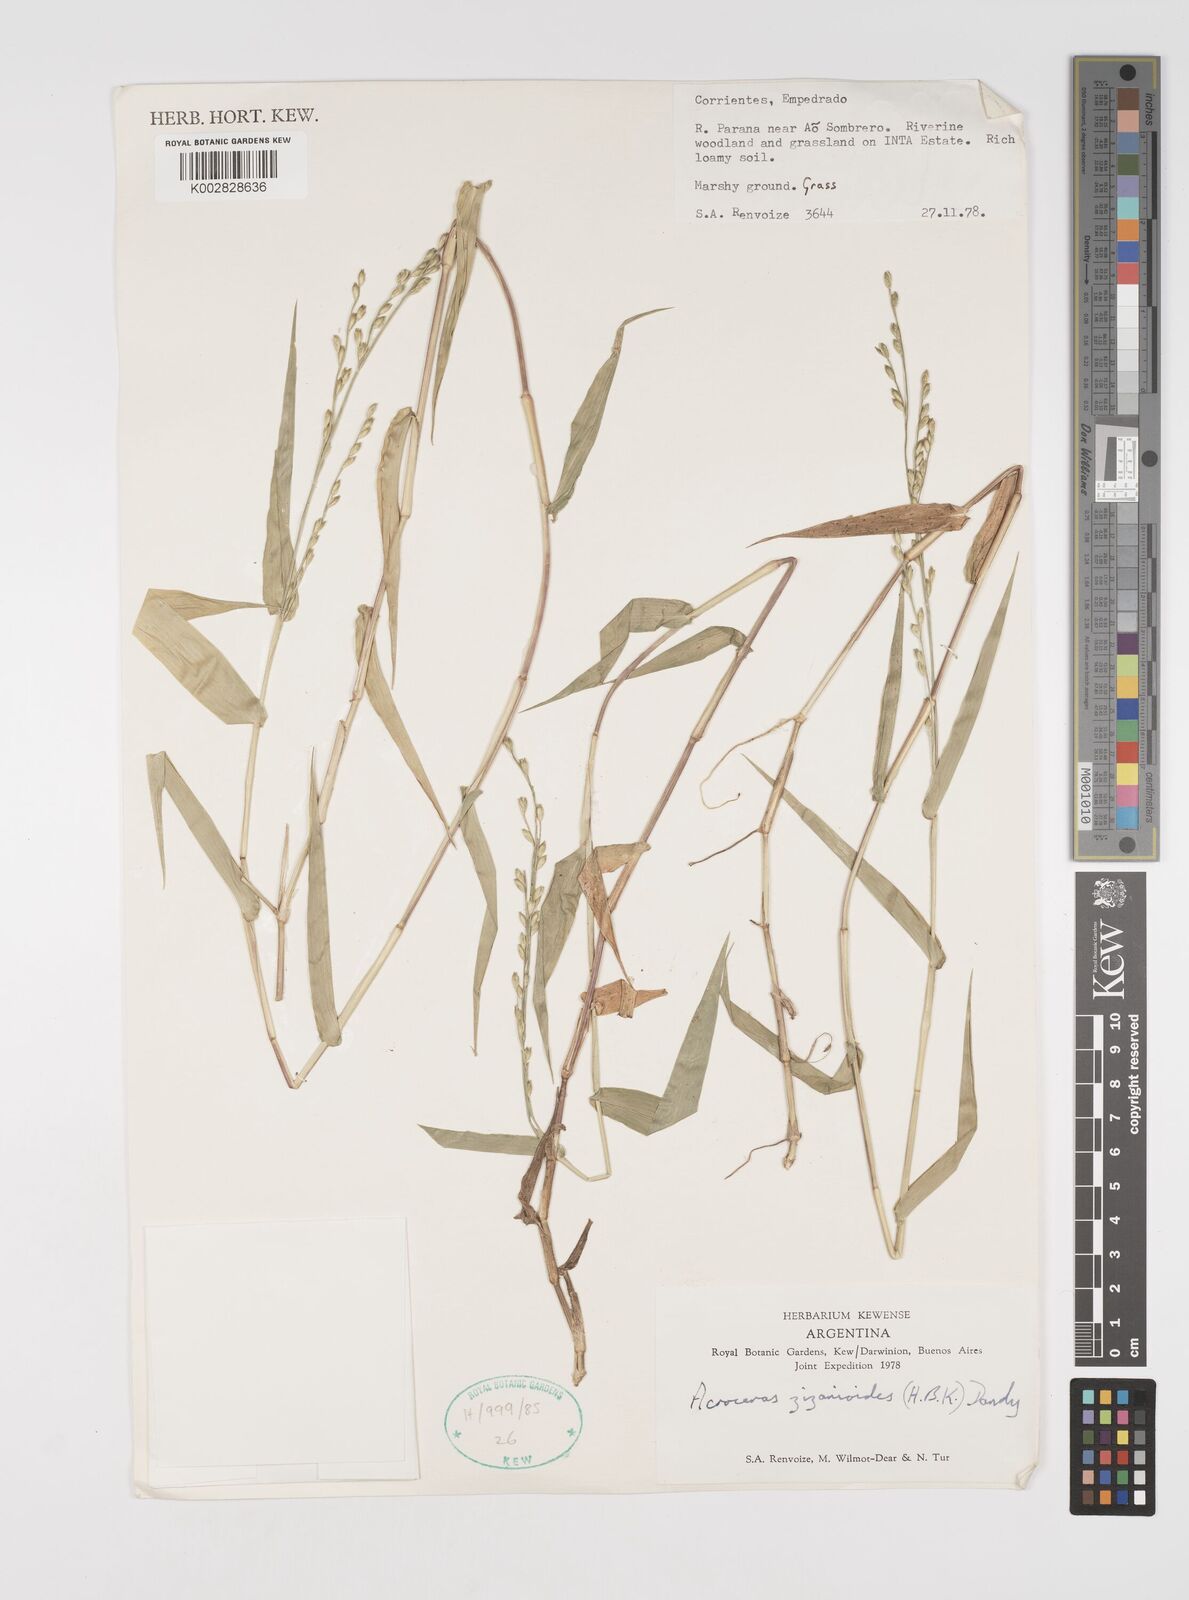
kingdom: Plantae
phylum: Tracheophyta
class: Liliopsida
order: Poales
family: Poaceae
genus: Acroceras
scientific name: Acroceras zizanioides
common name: Oat grass
